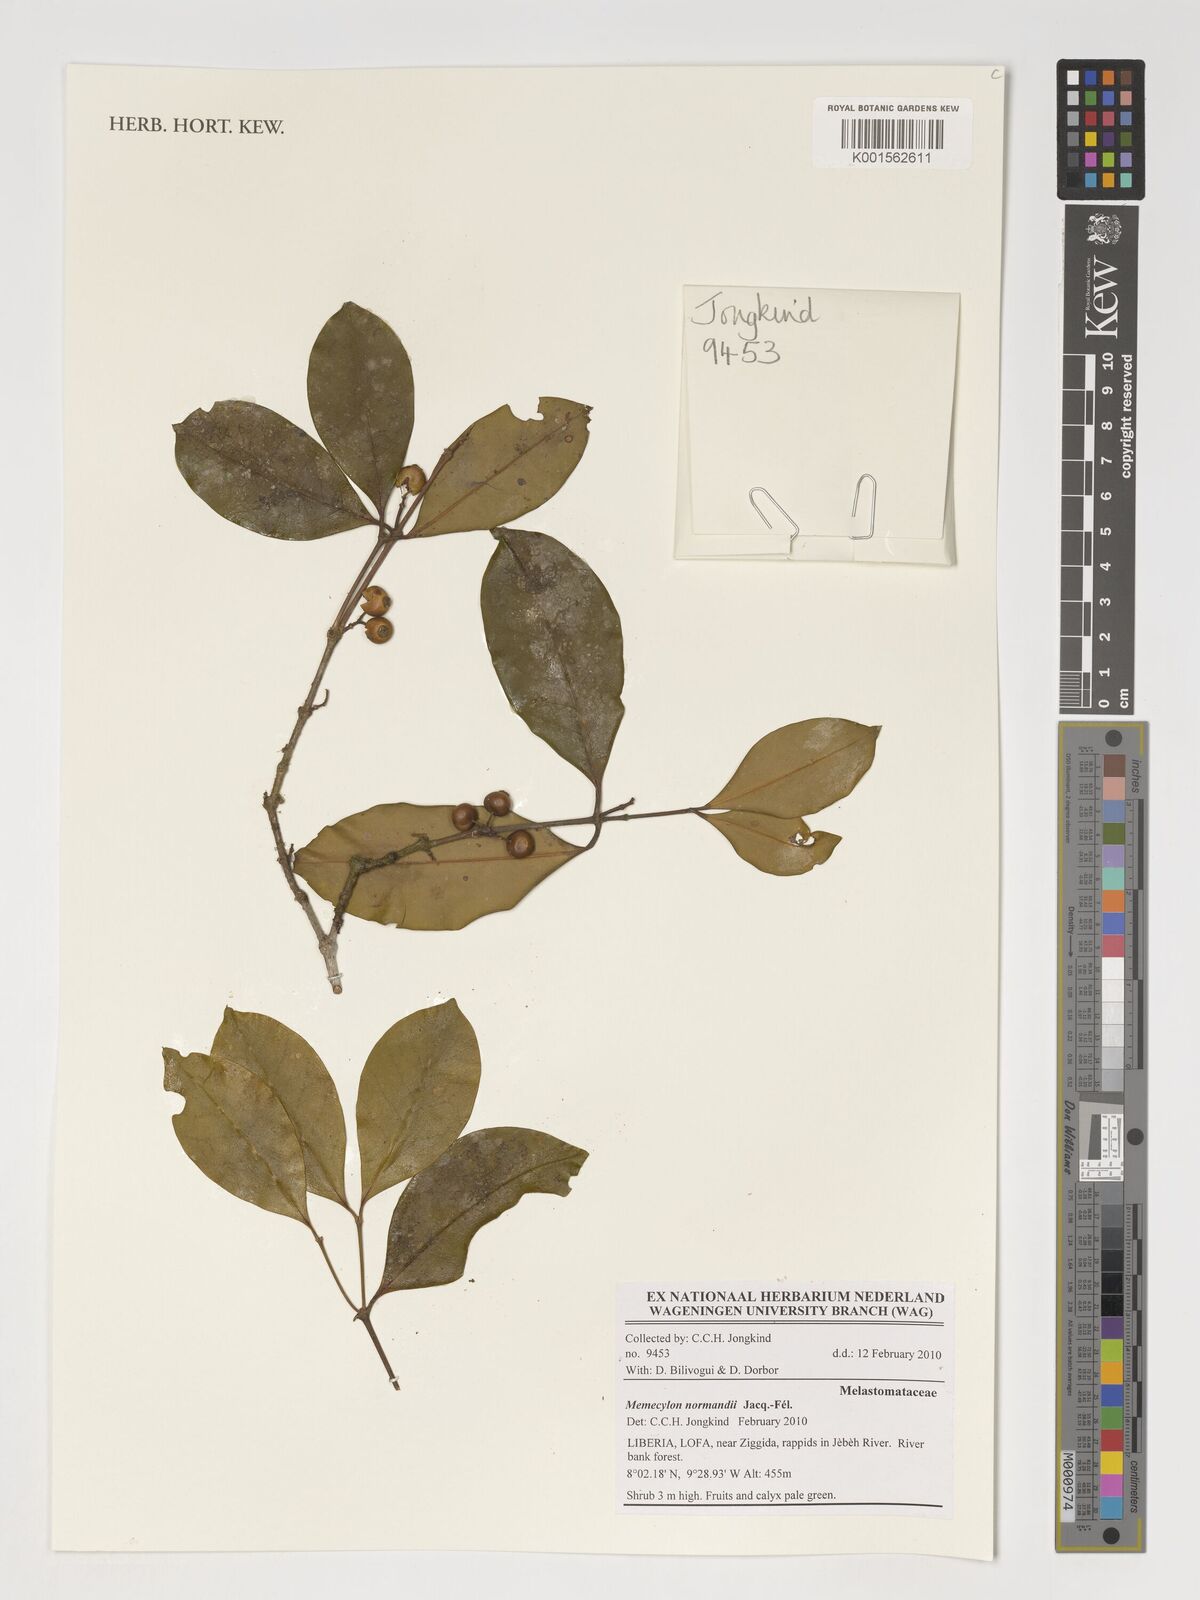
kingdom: Plantae
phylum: Tracheophyta
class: Magnoliopsida
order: Myrtales
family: Melastomataceae
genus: Memecylon
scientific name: Memecylon normandii
